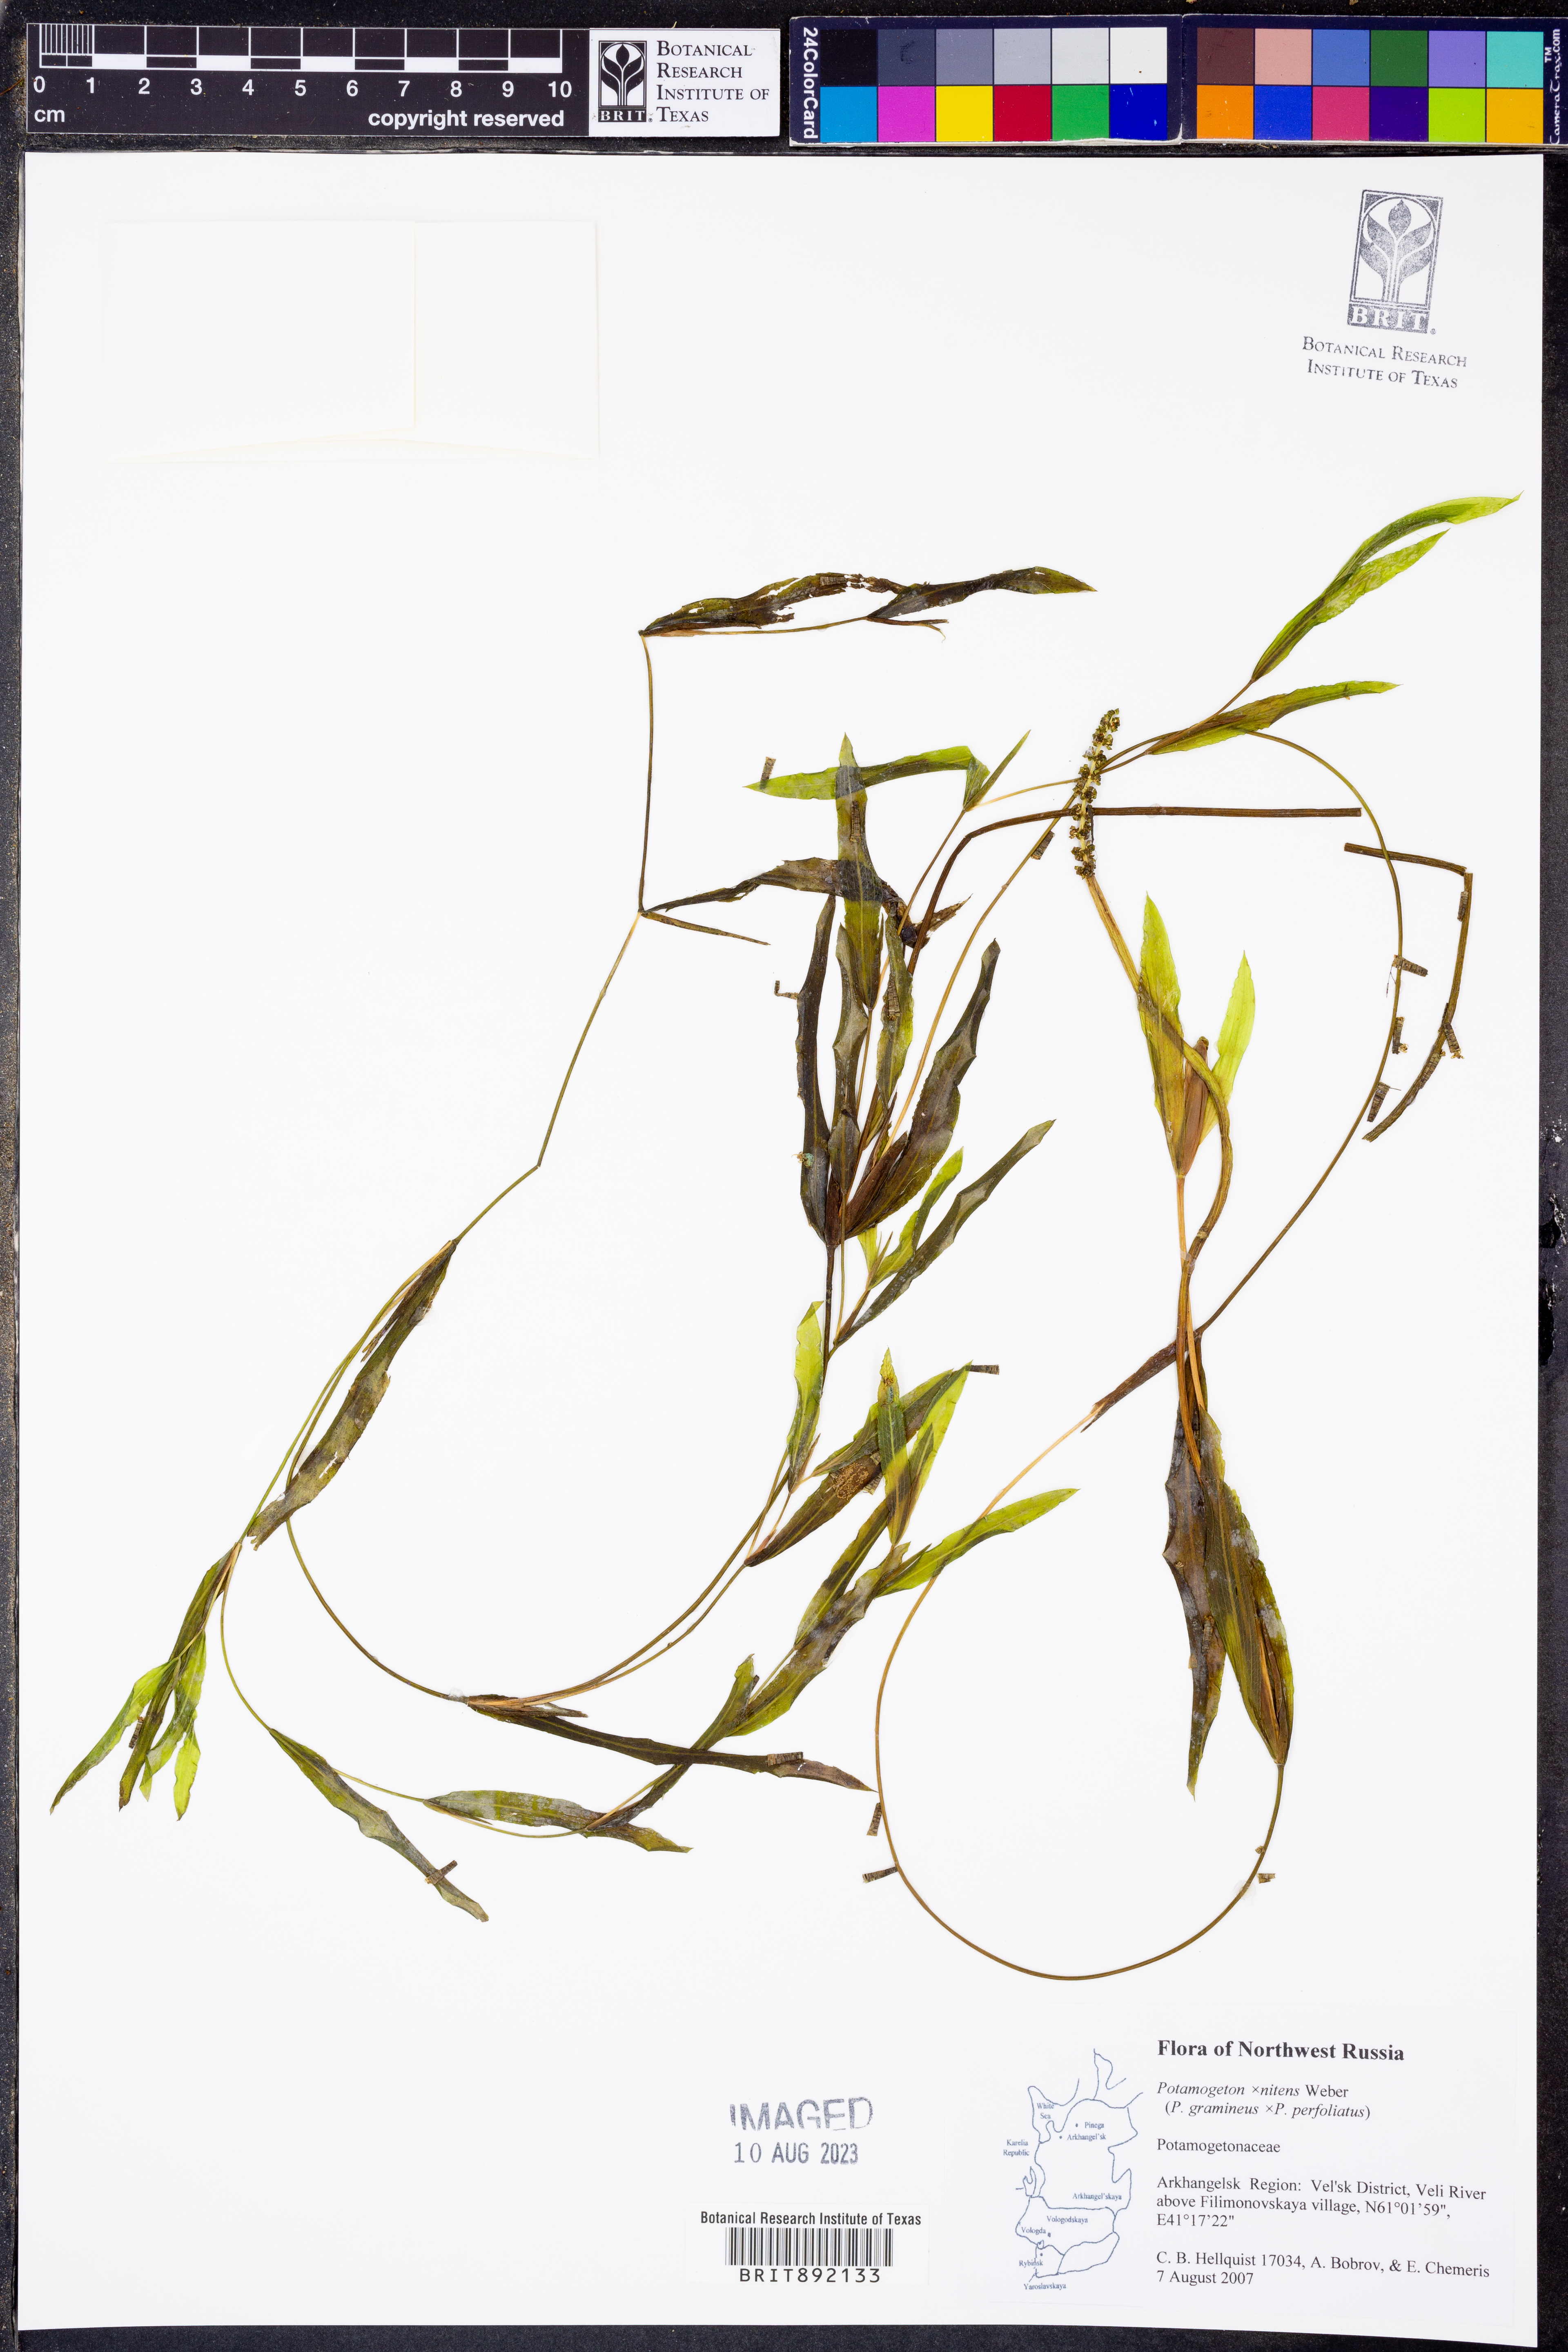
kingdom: Plantae
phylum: Tracheophyta
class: Liliopsida
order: Alismatales
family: Potamogetonaceae
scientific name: Potamogetonaceae
